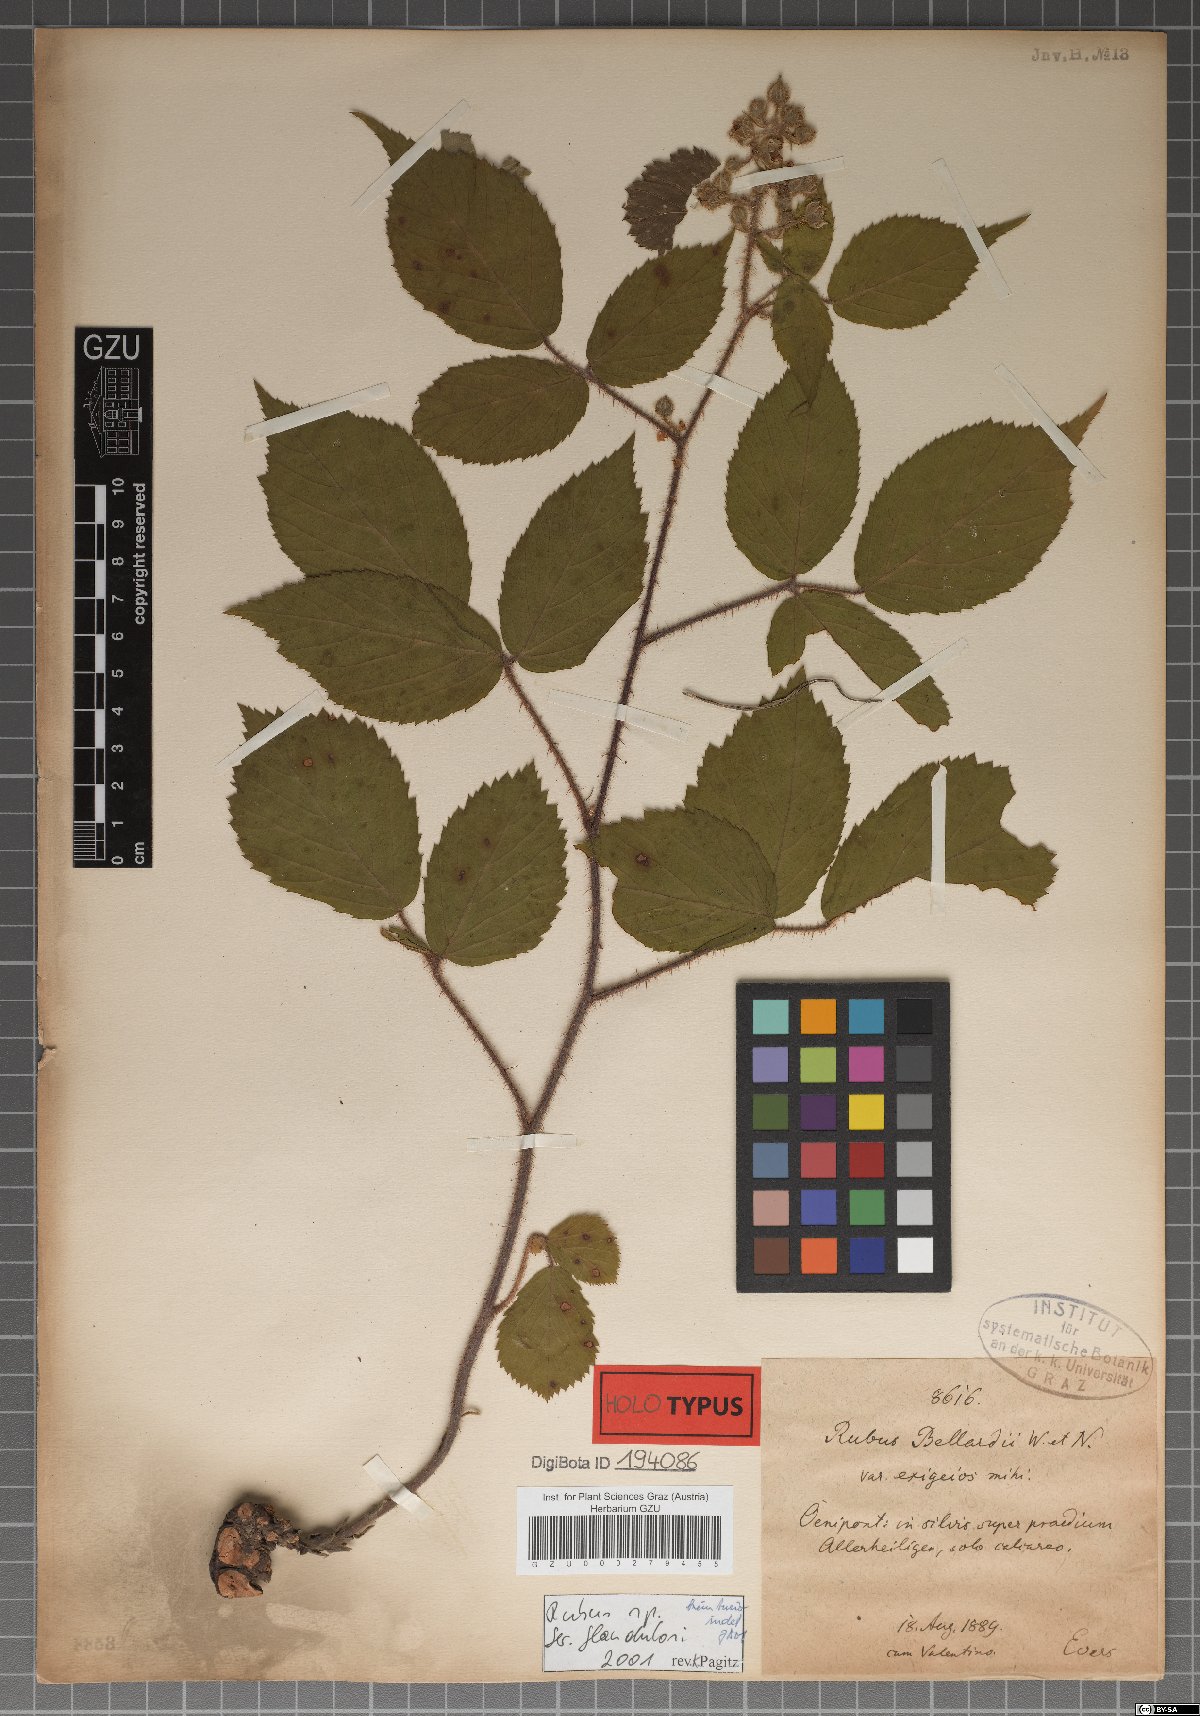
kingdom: Plantae
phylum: Tracheophyta
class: Magnoliopsida
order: Rosales
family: Rosaceae
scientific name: Rosaceae
